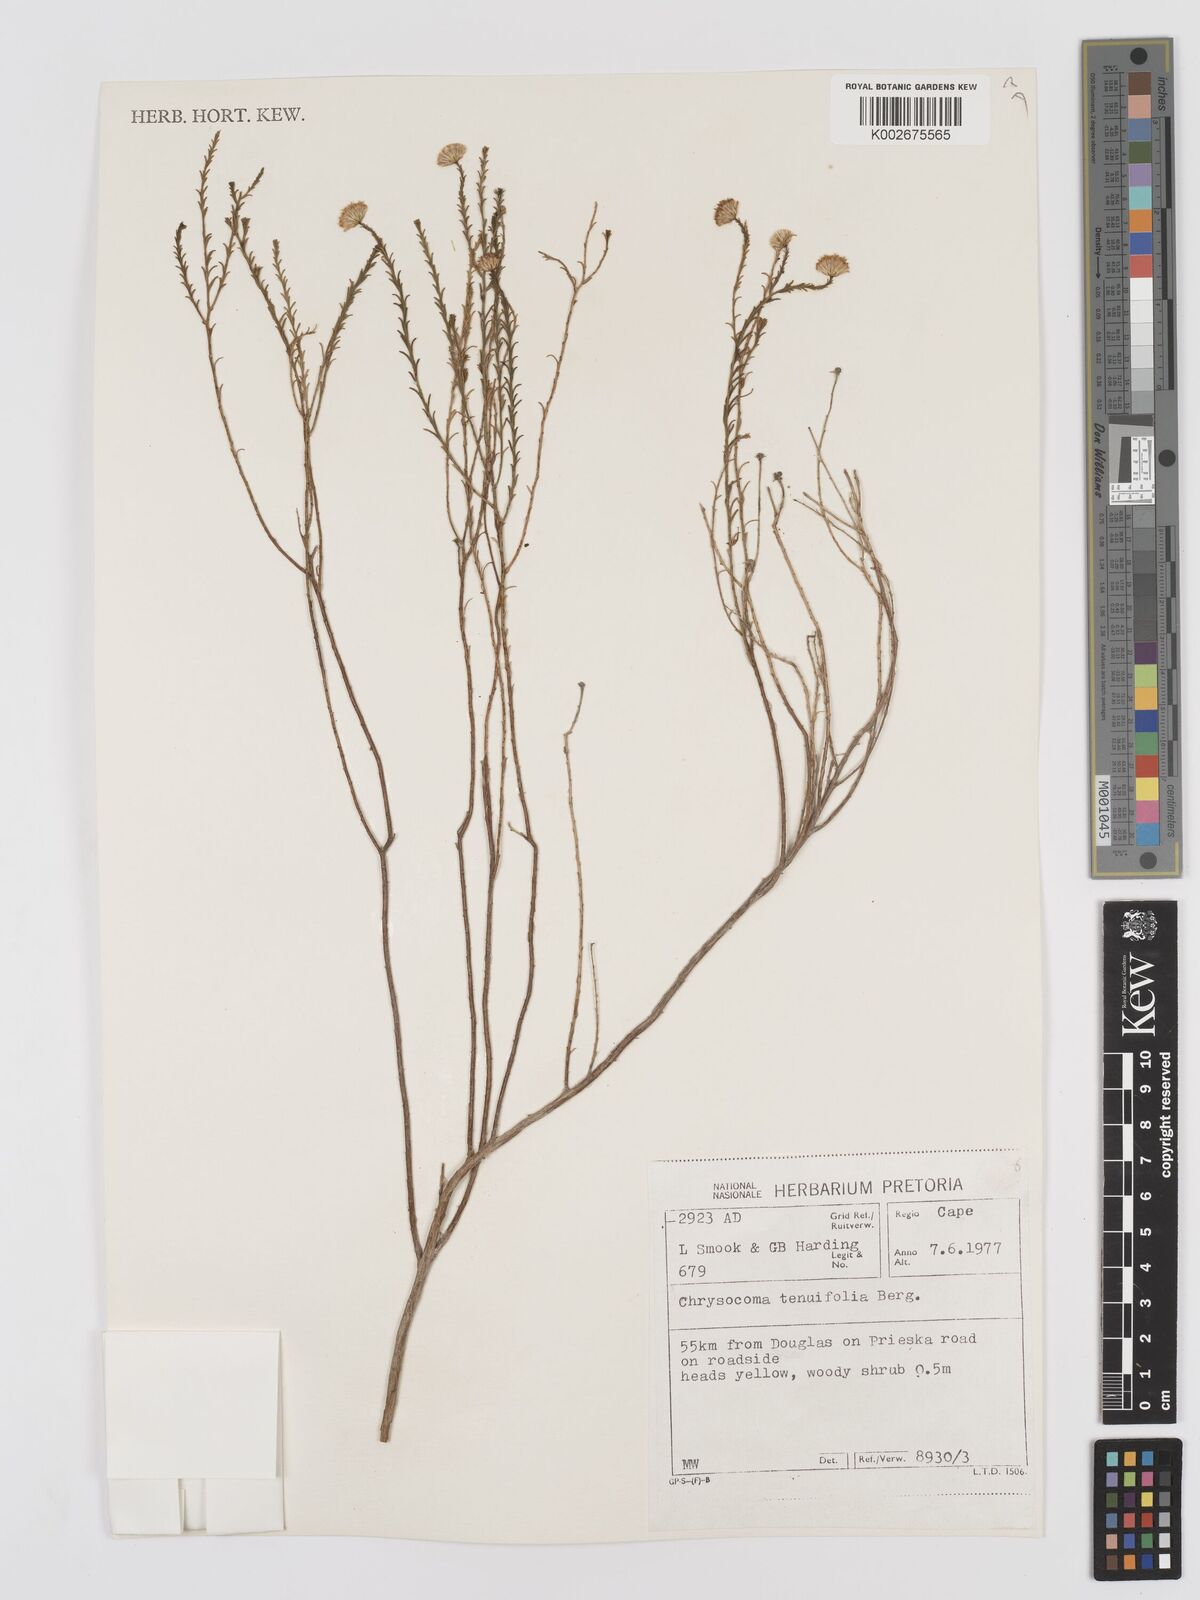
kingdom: Plantae
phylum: Tracheophyta
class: Magnoliopsida
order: Asterales
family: Asteraceae
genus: Chrysocoma
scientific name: Chrysocoma ciliata
